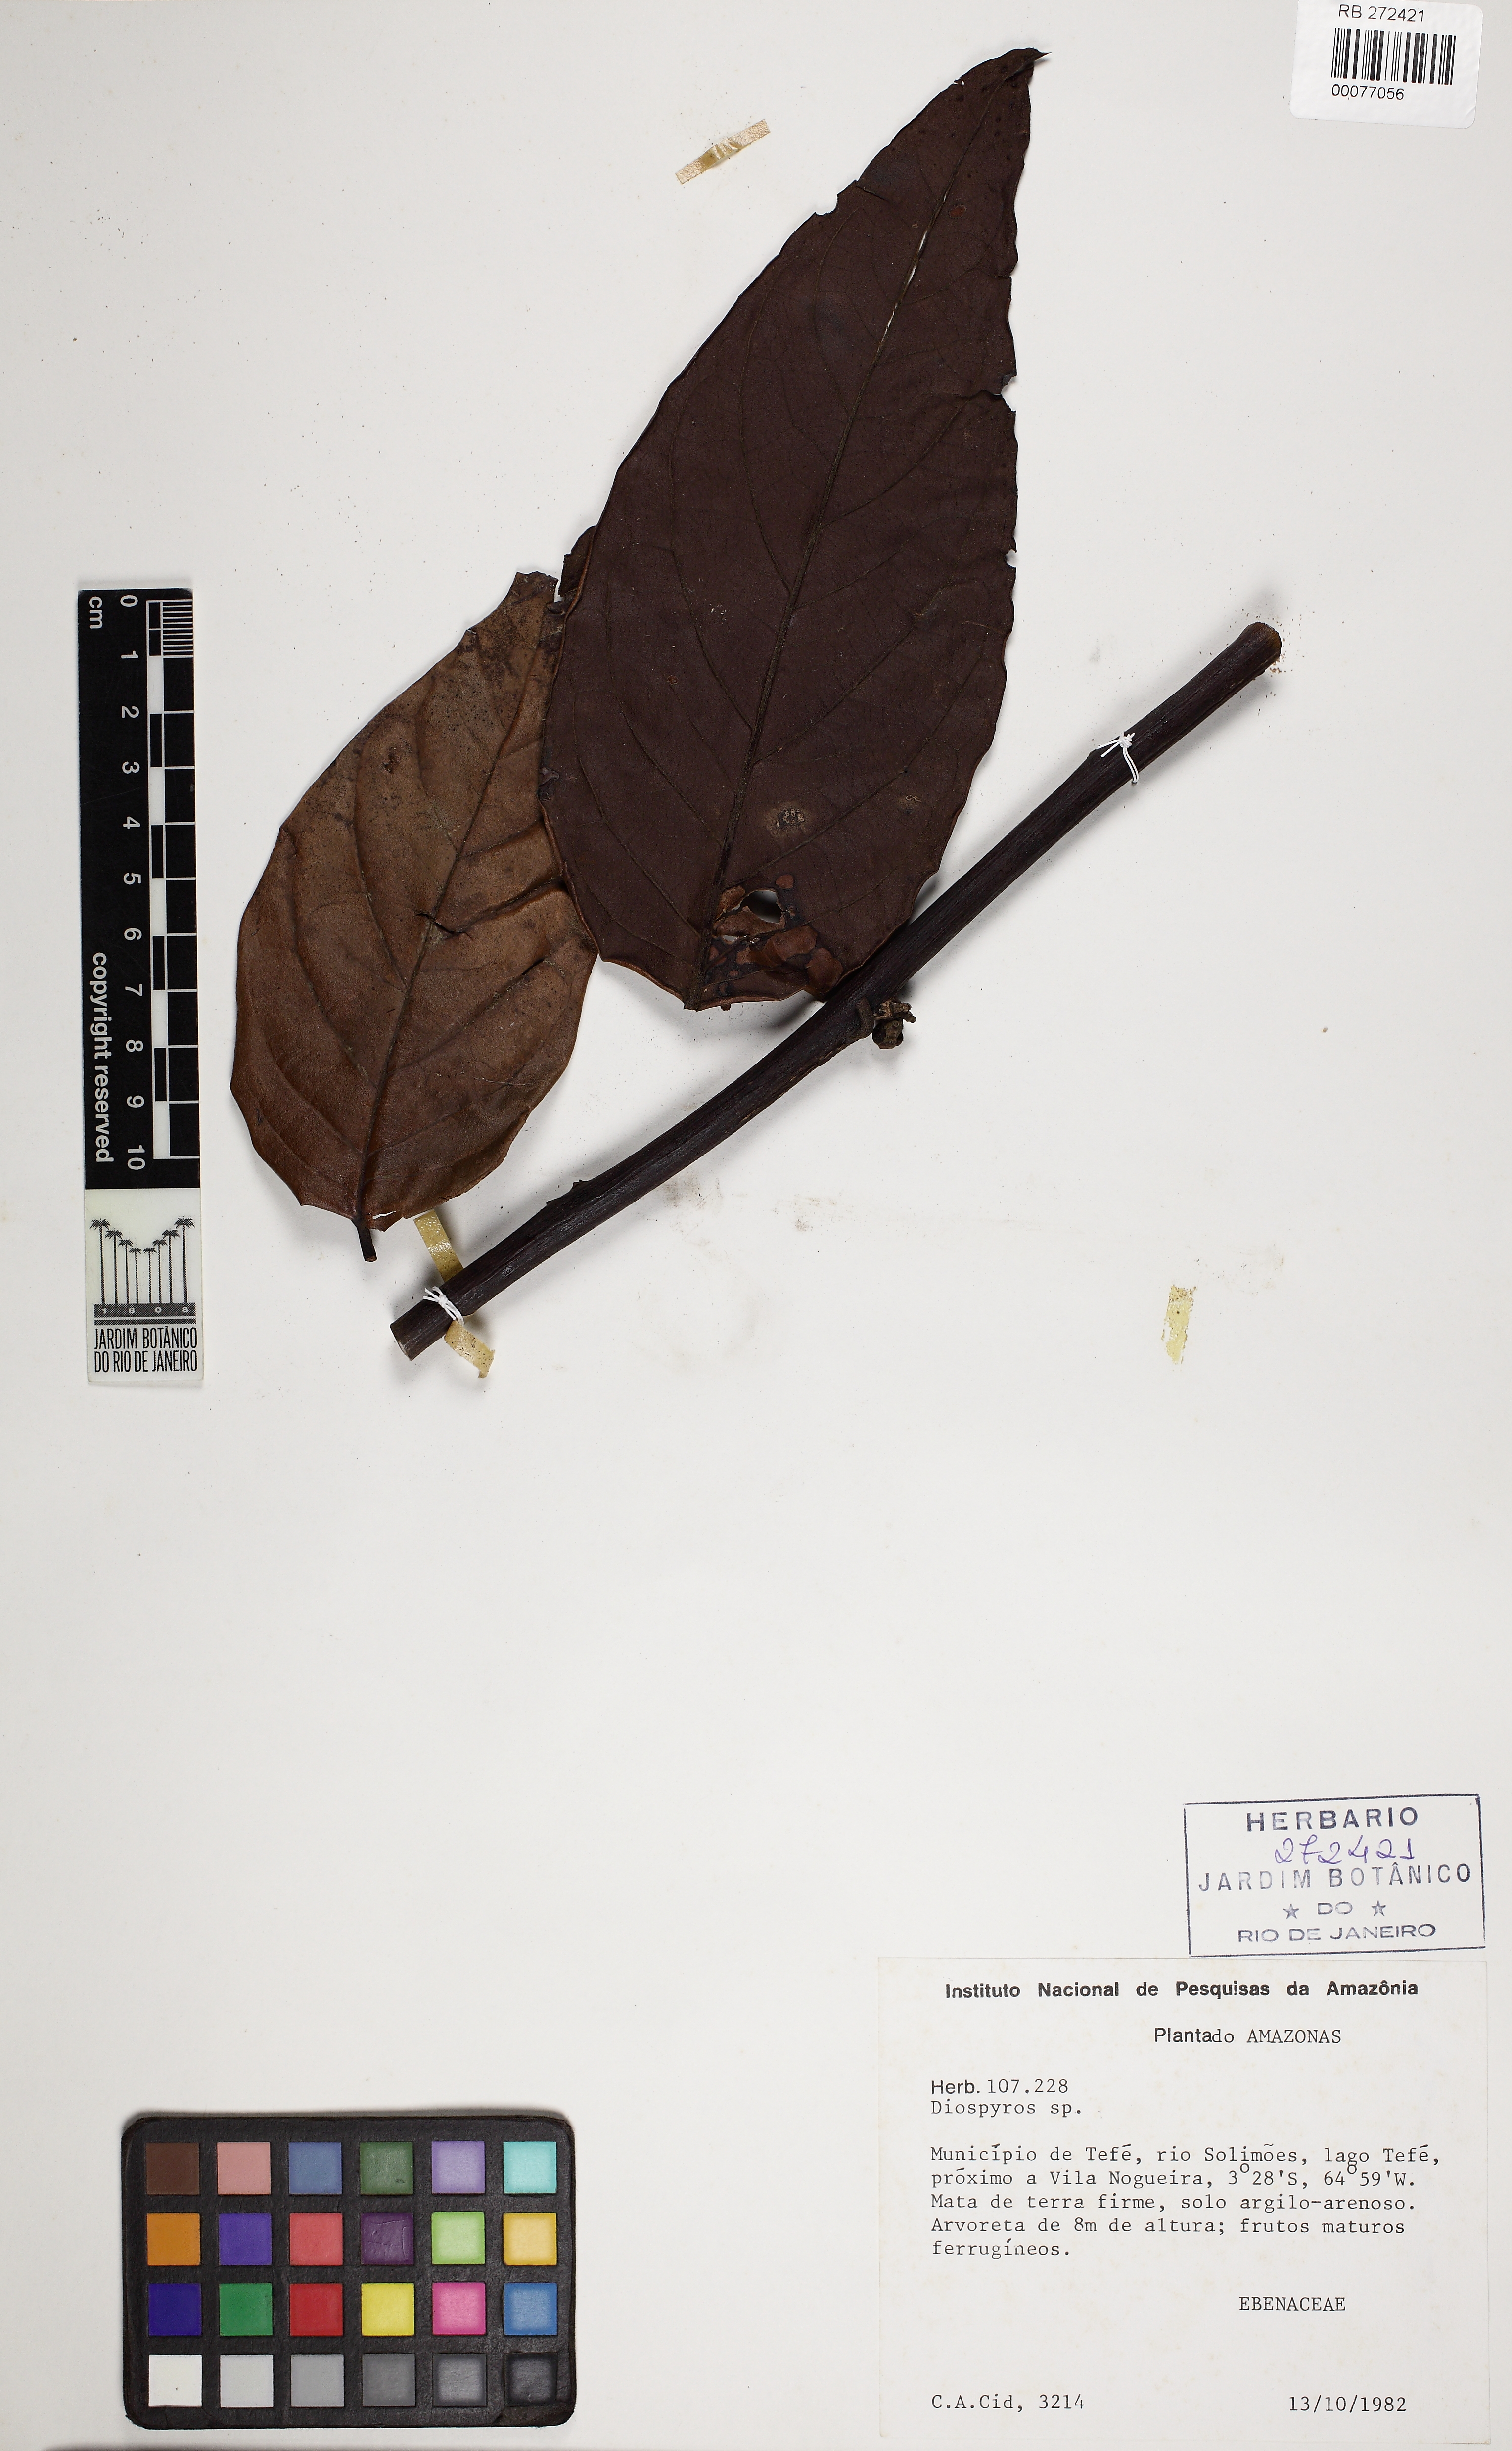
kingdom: Plantae
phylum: Tracheophyta
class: Magnoliopsida
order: Ericales
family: Ebenaceae
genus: Diospyros
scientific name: Diospyros
